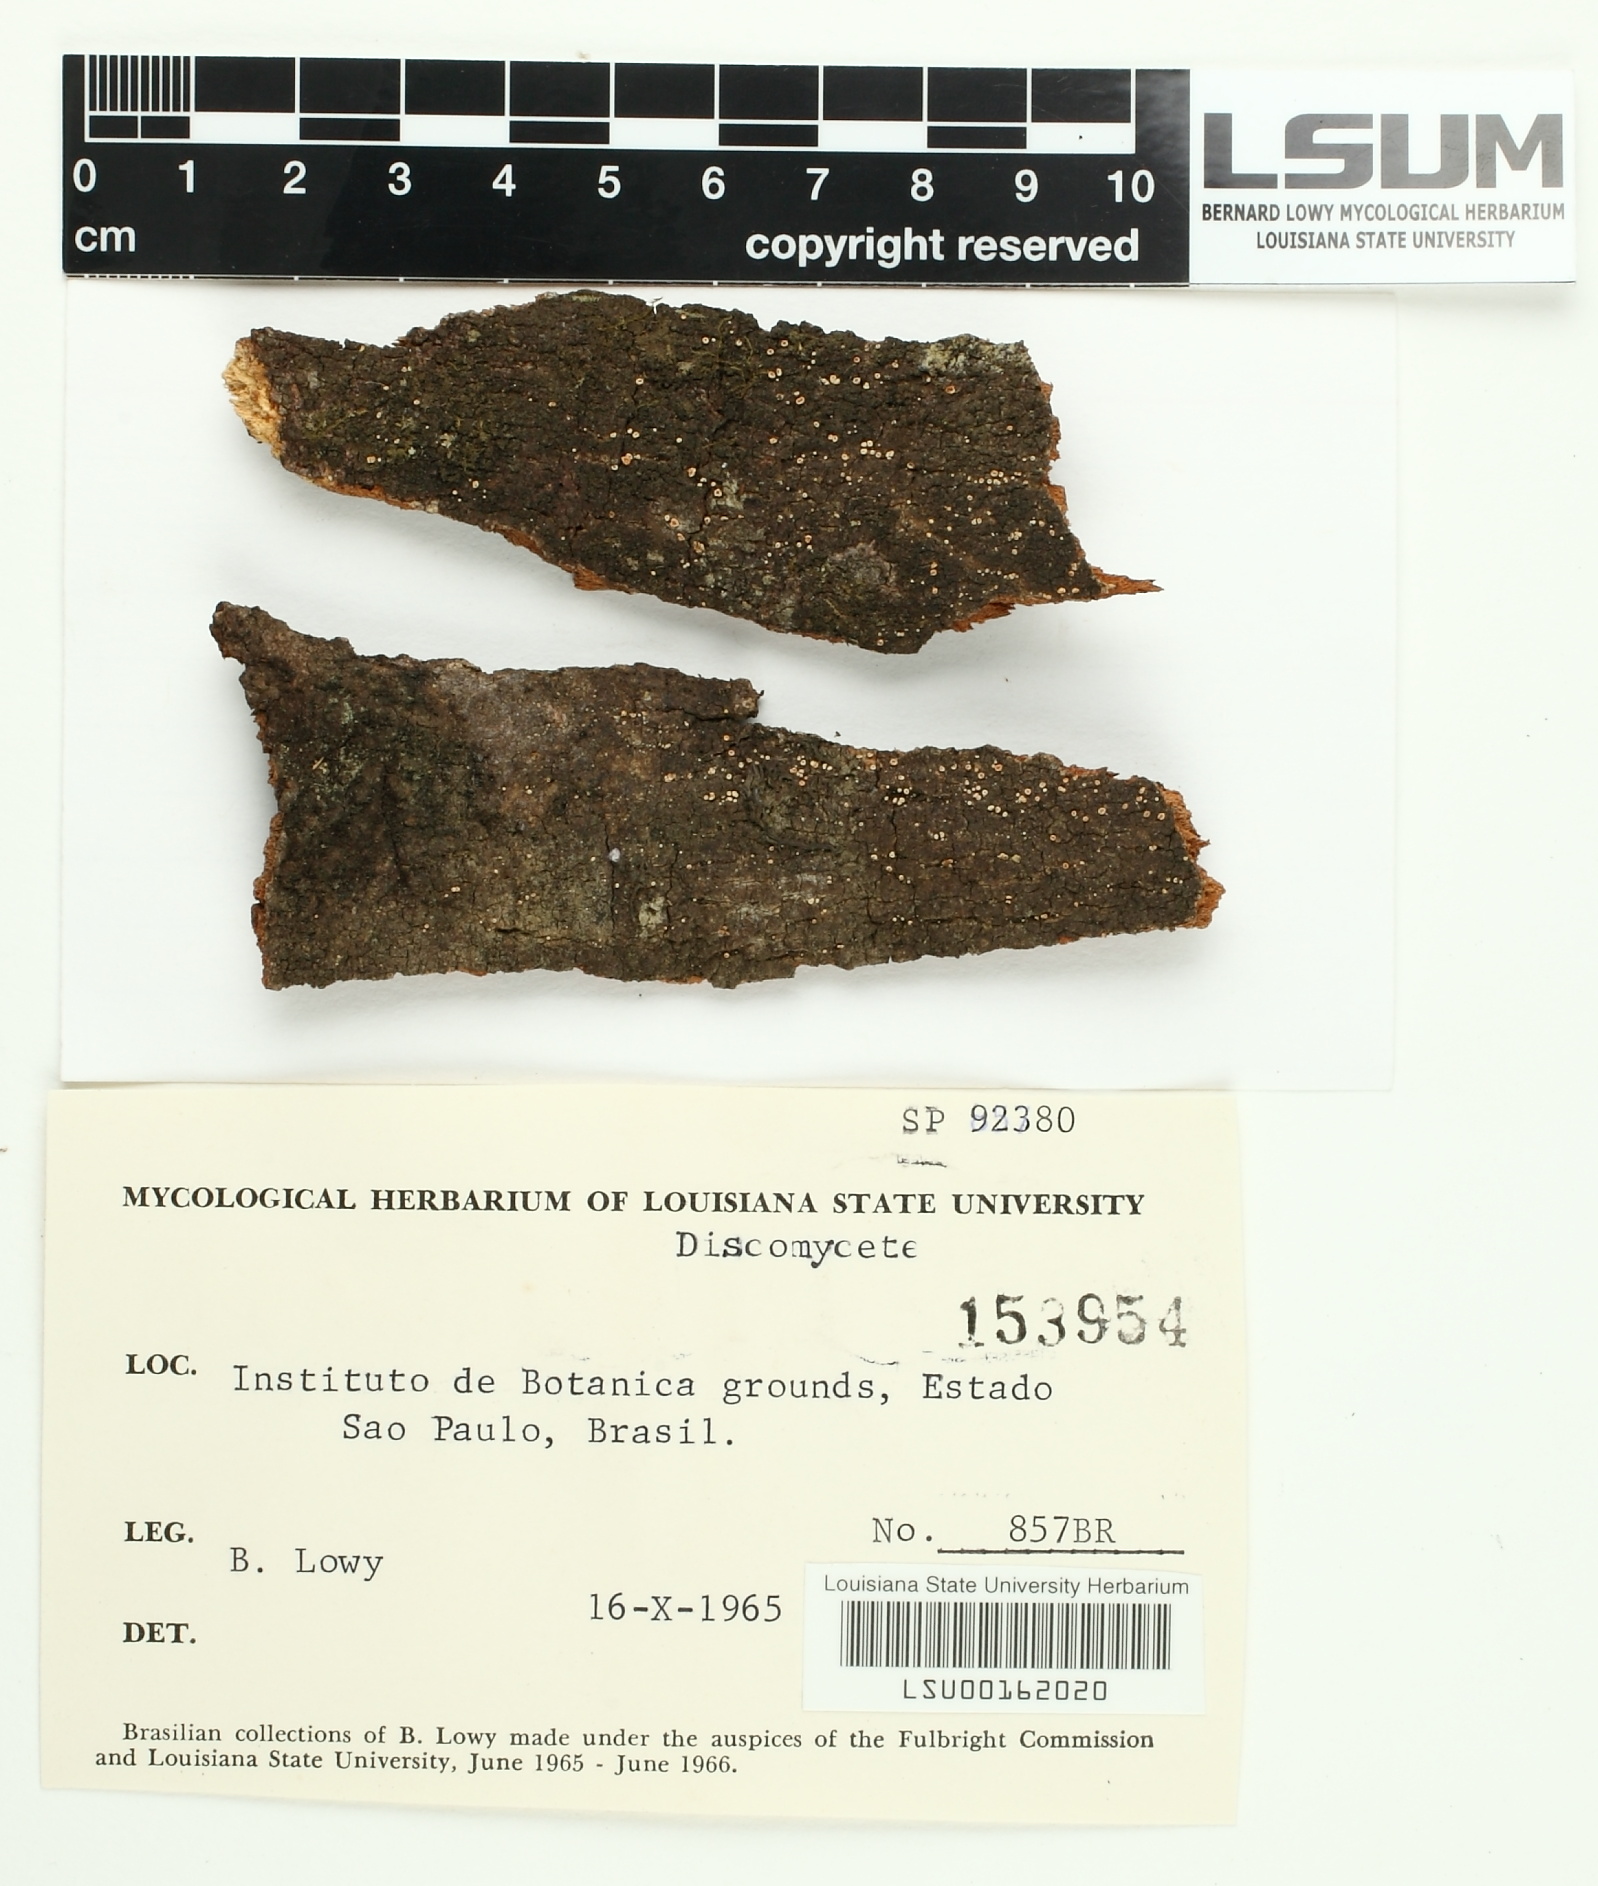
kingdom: Fungi
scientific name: Fungi
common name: Fungi
